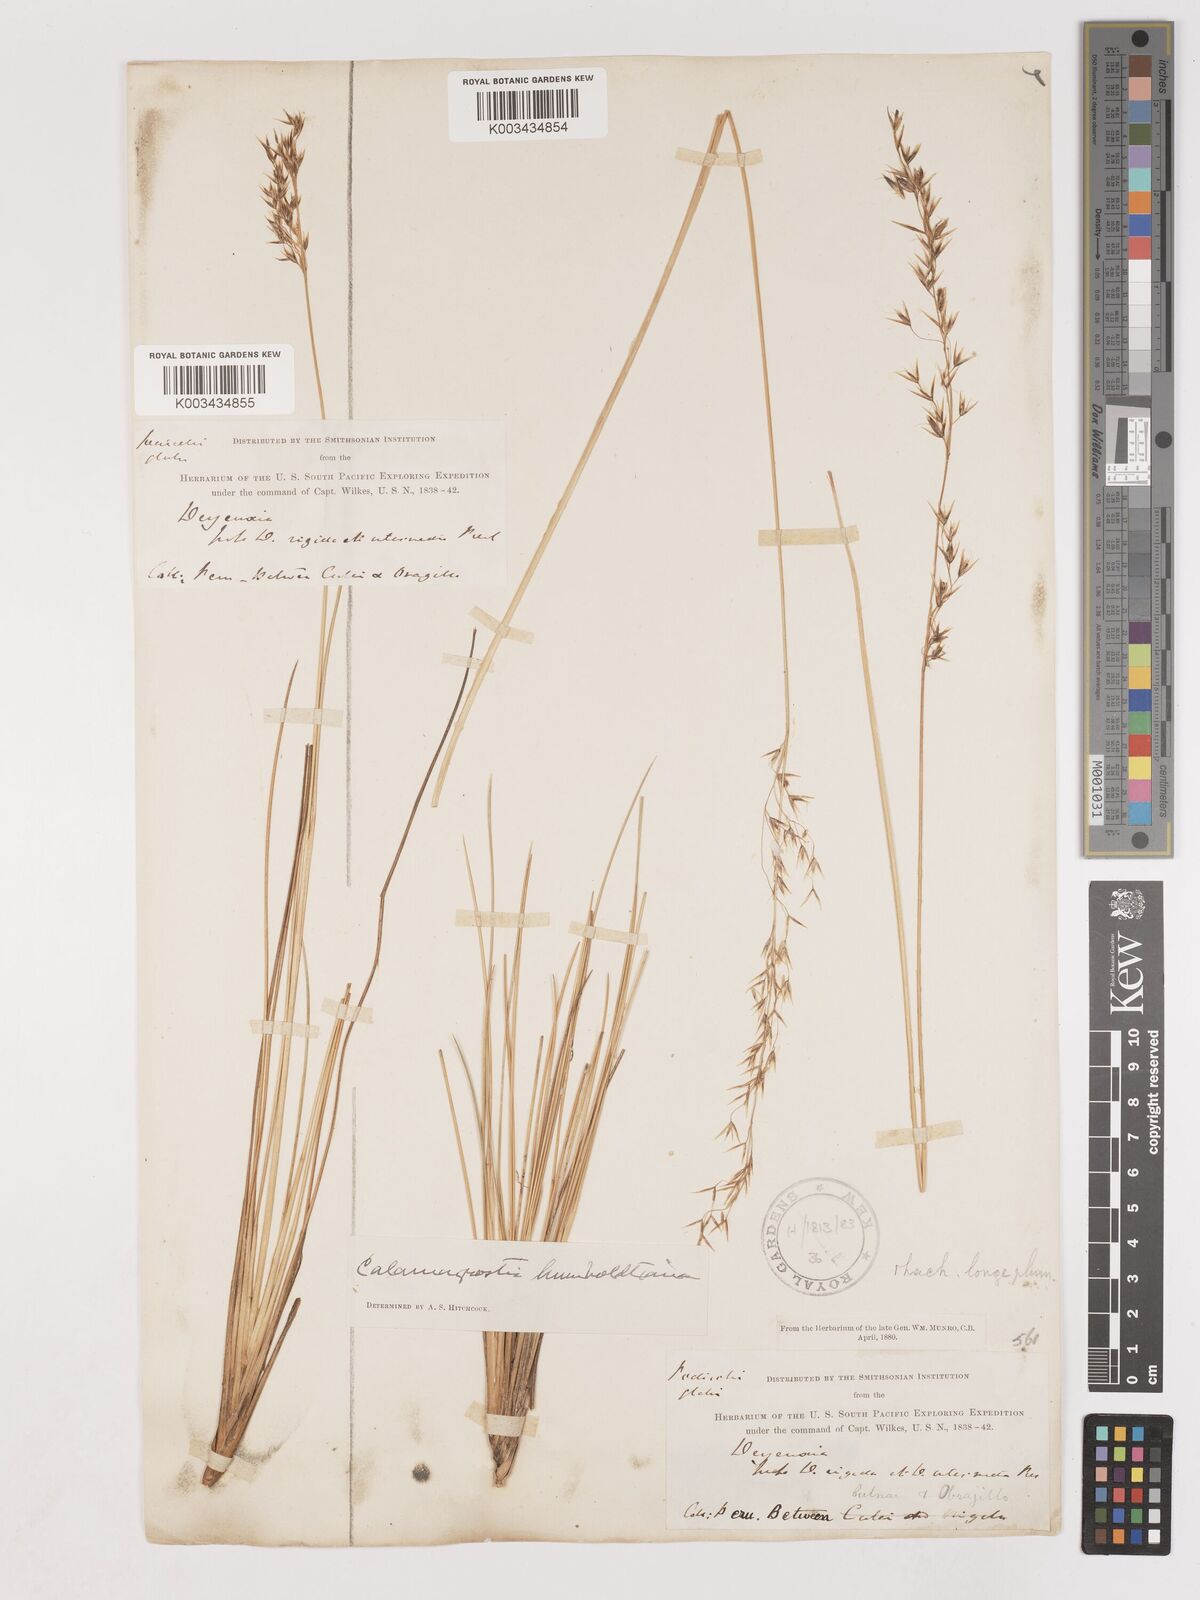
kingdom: Plantae
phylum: Tracheophyta
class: Liliopsida
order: Poales
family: Poaceae
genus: Cinnagrostis
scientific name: Cinnagrostis recta
